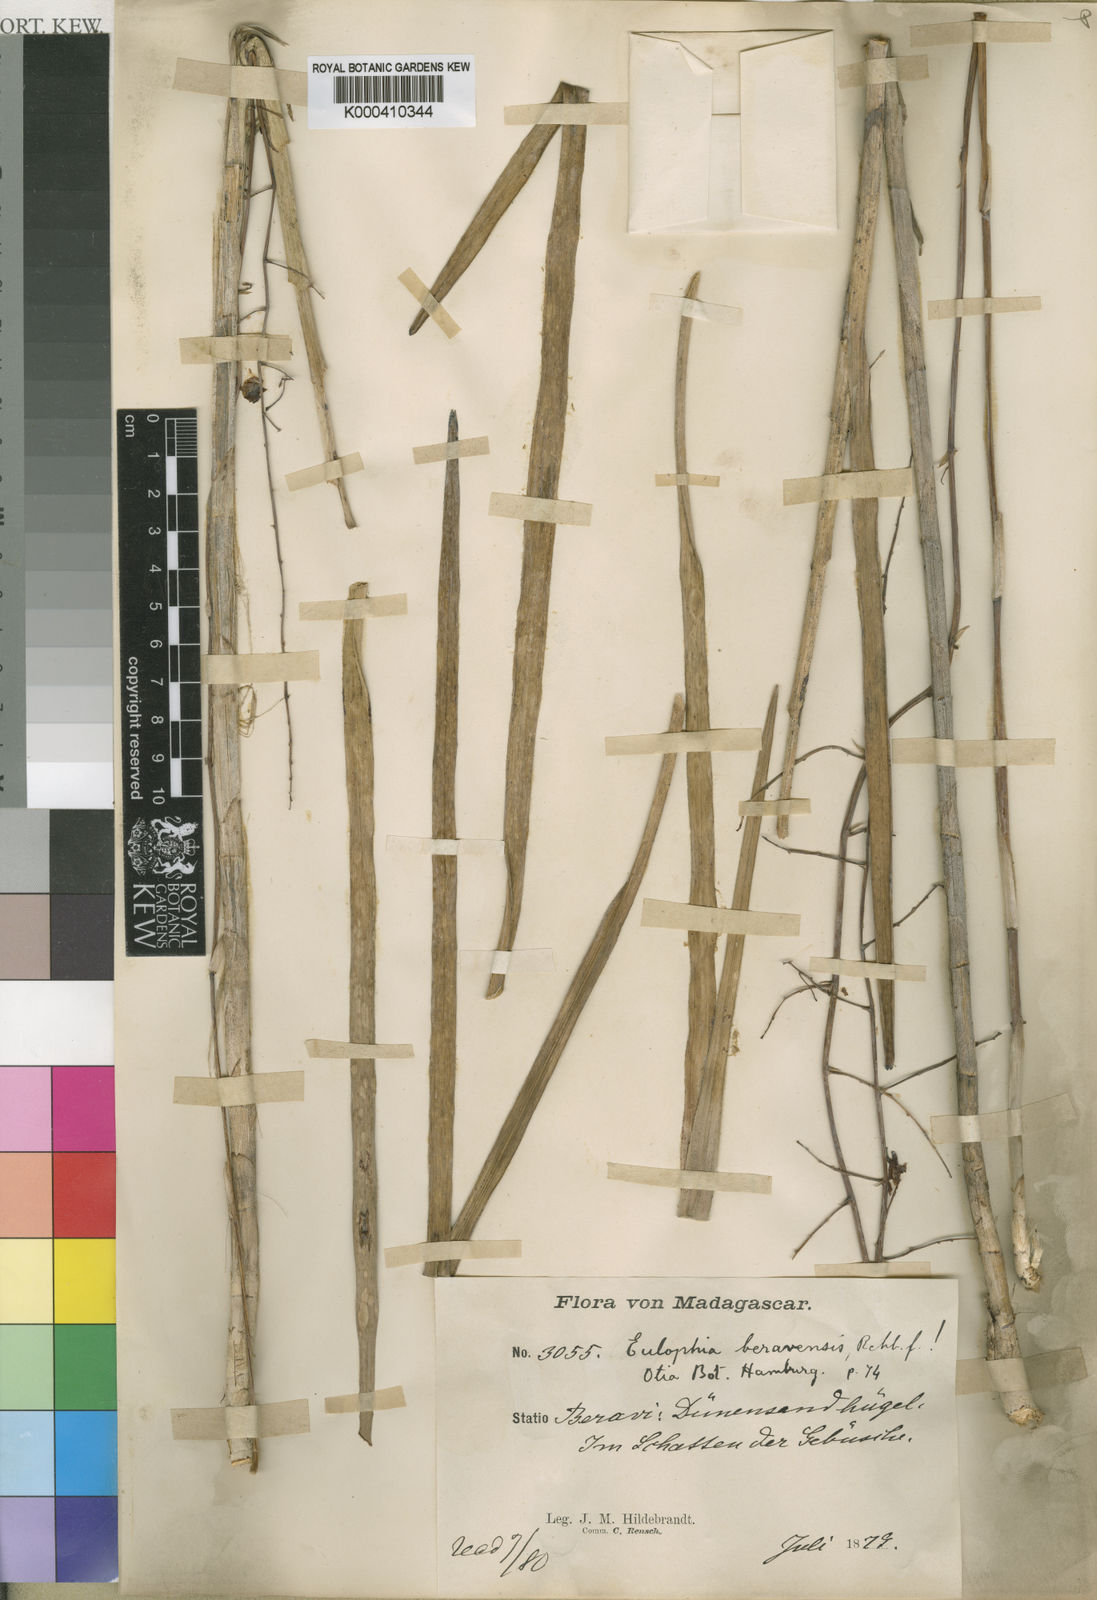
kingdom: Plantae
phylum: Tracheophyta
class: Liliopsida
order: Asparagales
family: Orchidaceae
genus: Eulophia
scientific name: Eulophia beravensis
